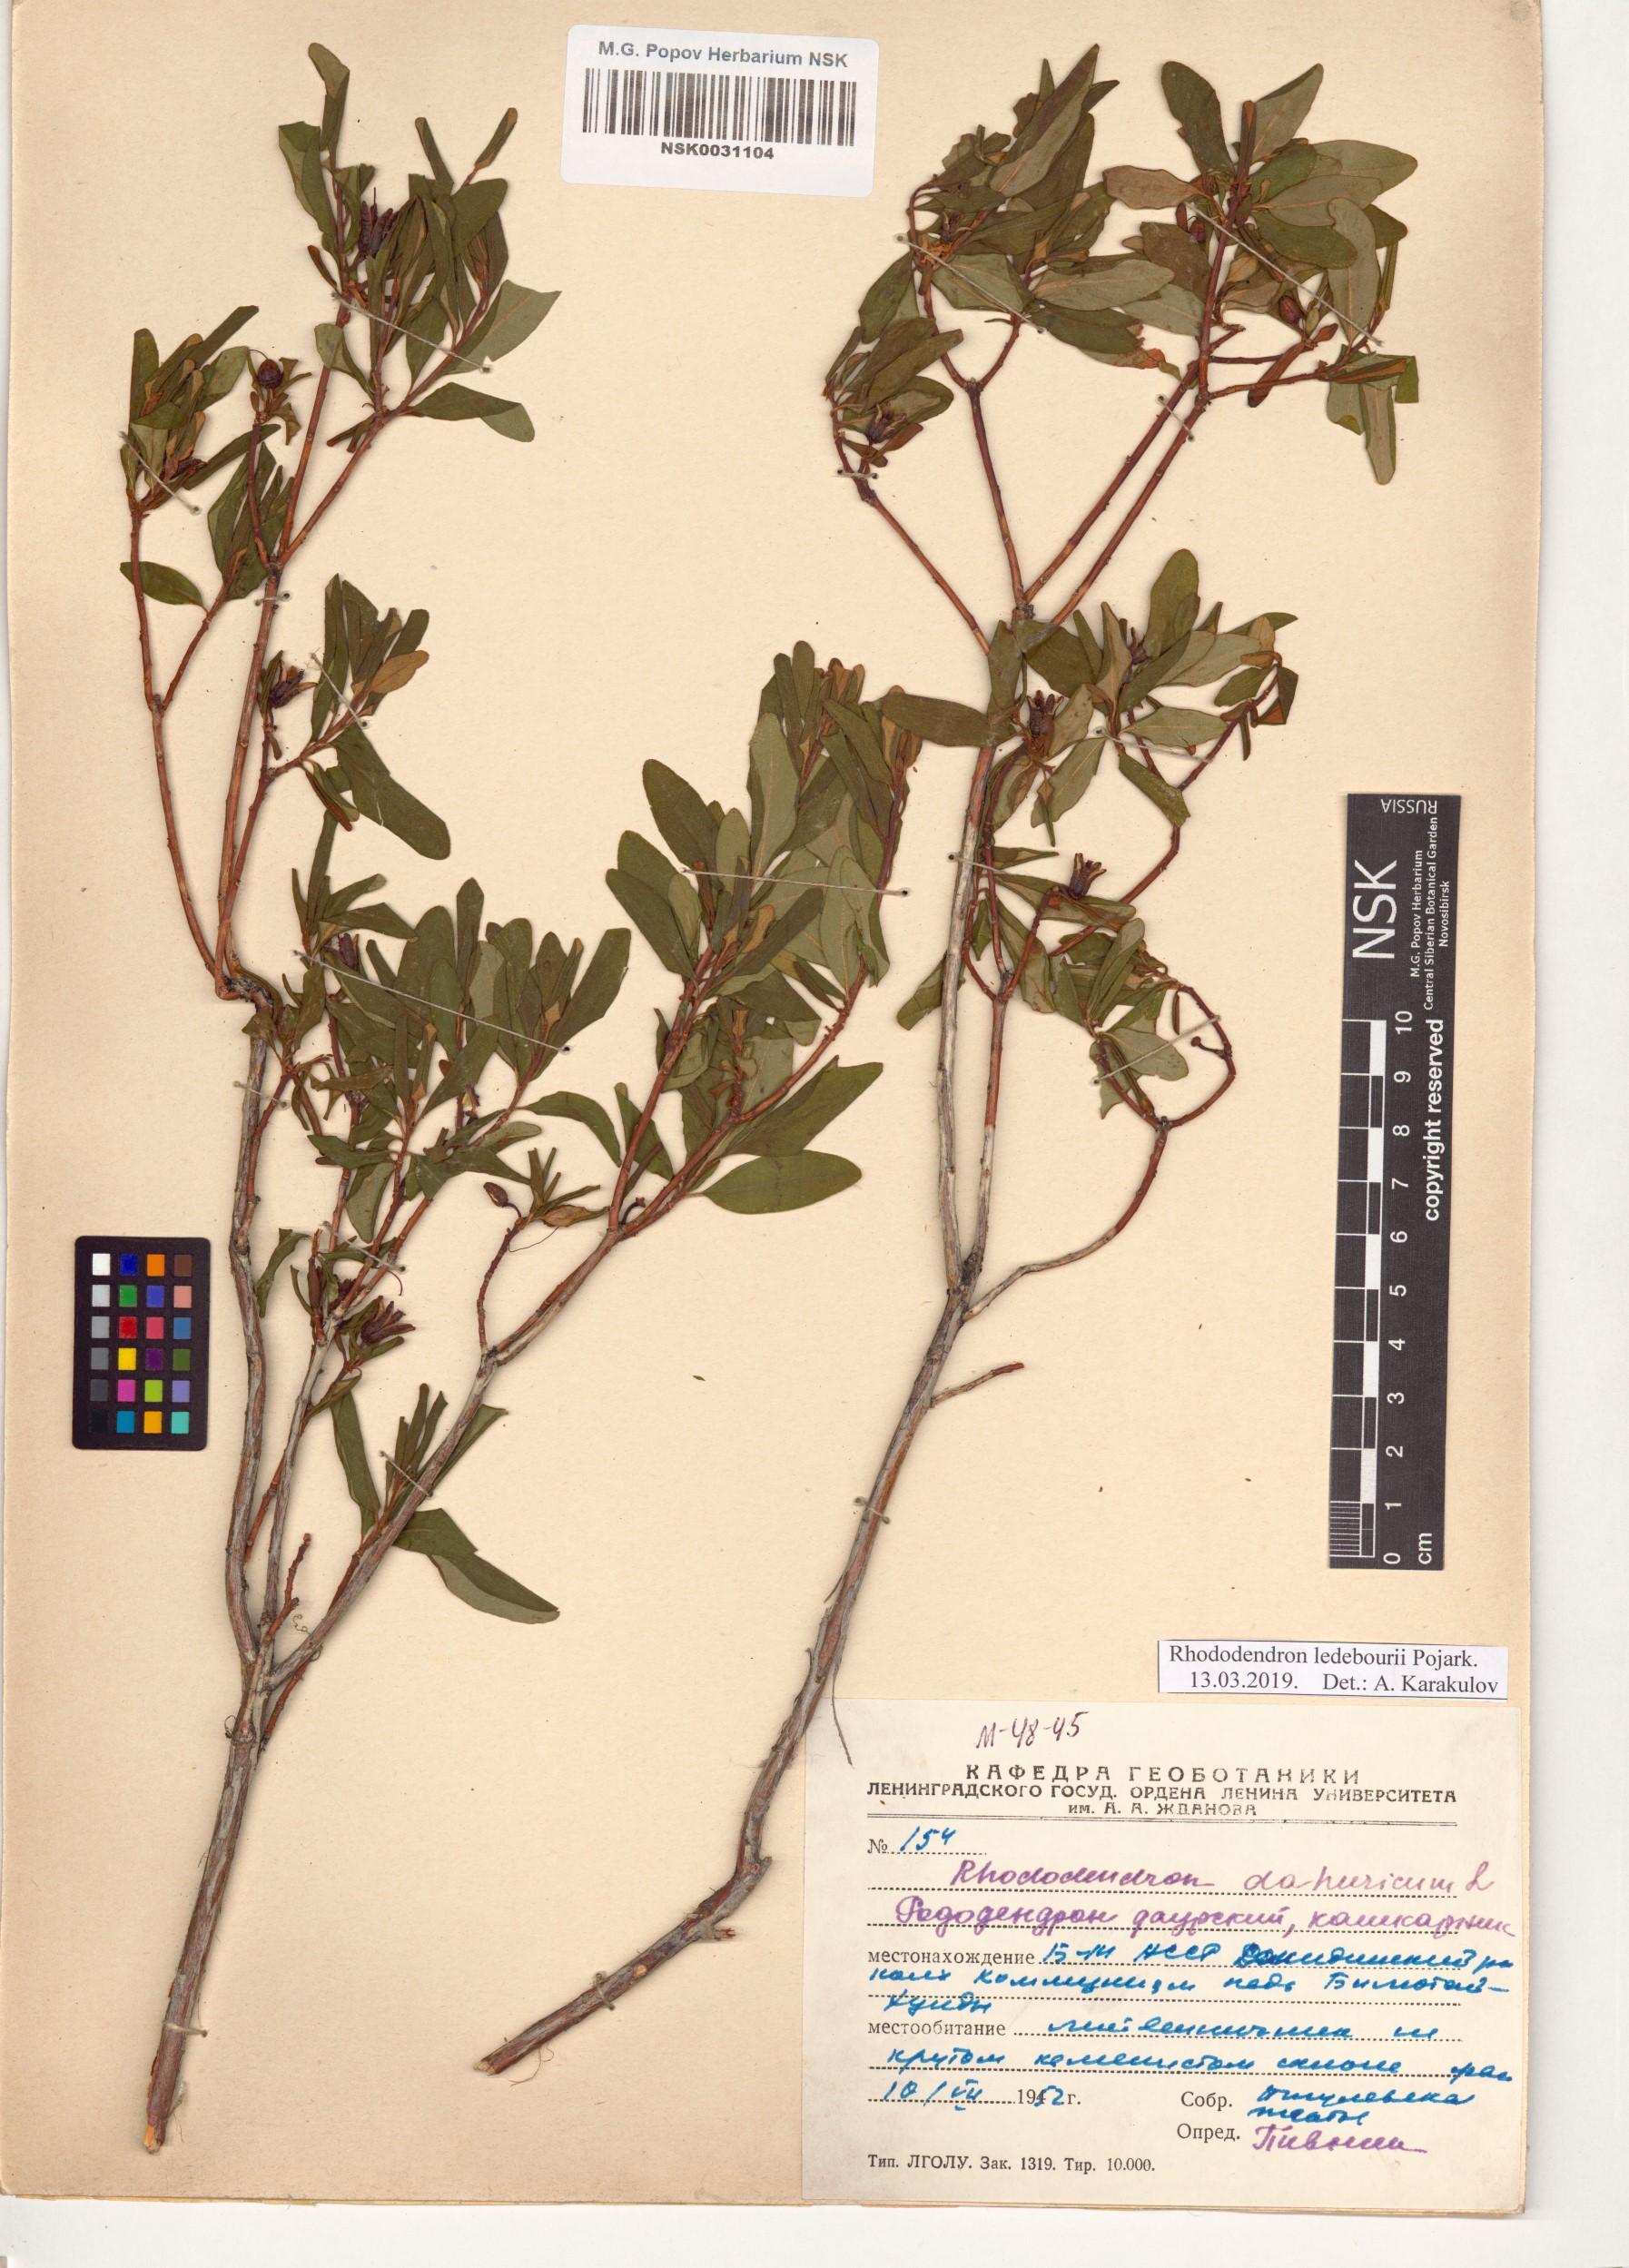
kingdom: Plantae
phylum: Tracheophyta
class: Magnoliopsida
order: Ericales
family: Ericaceae
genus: Rhododendron
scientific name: Rhododendron dauricum
